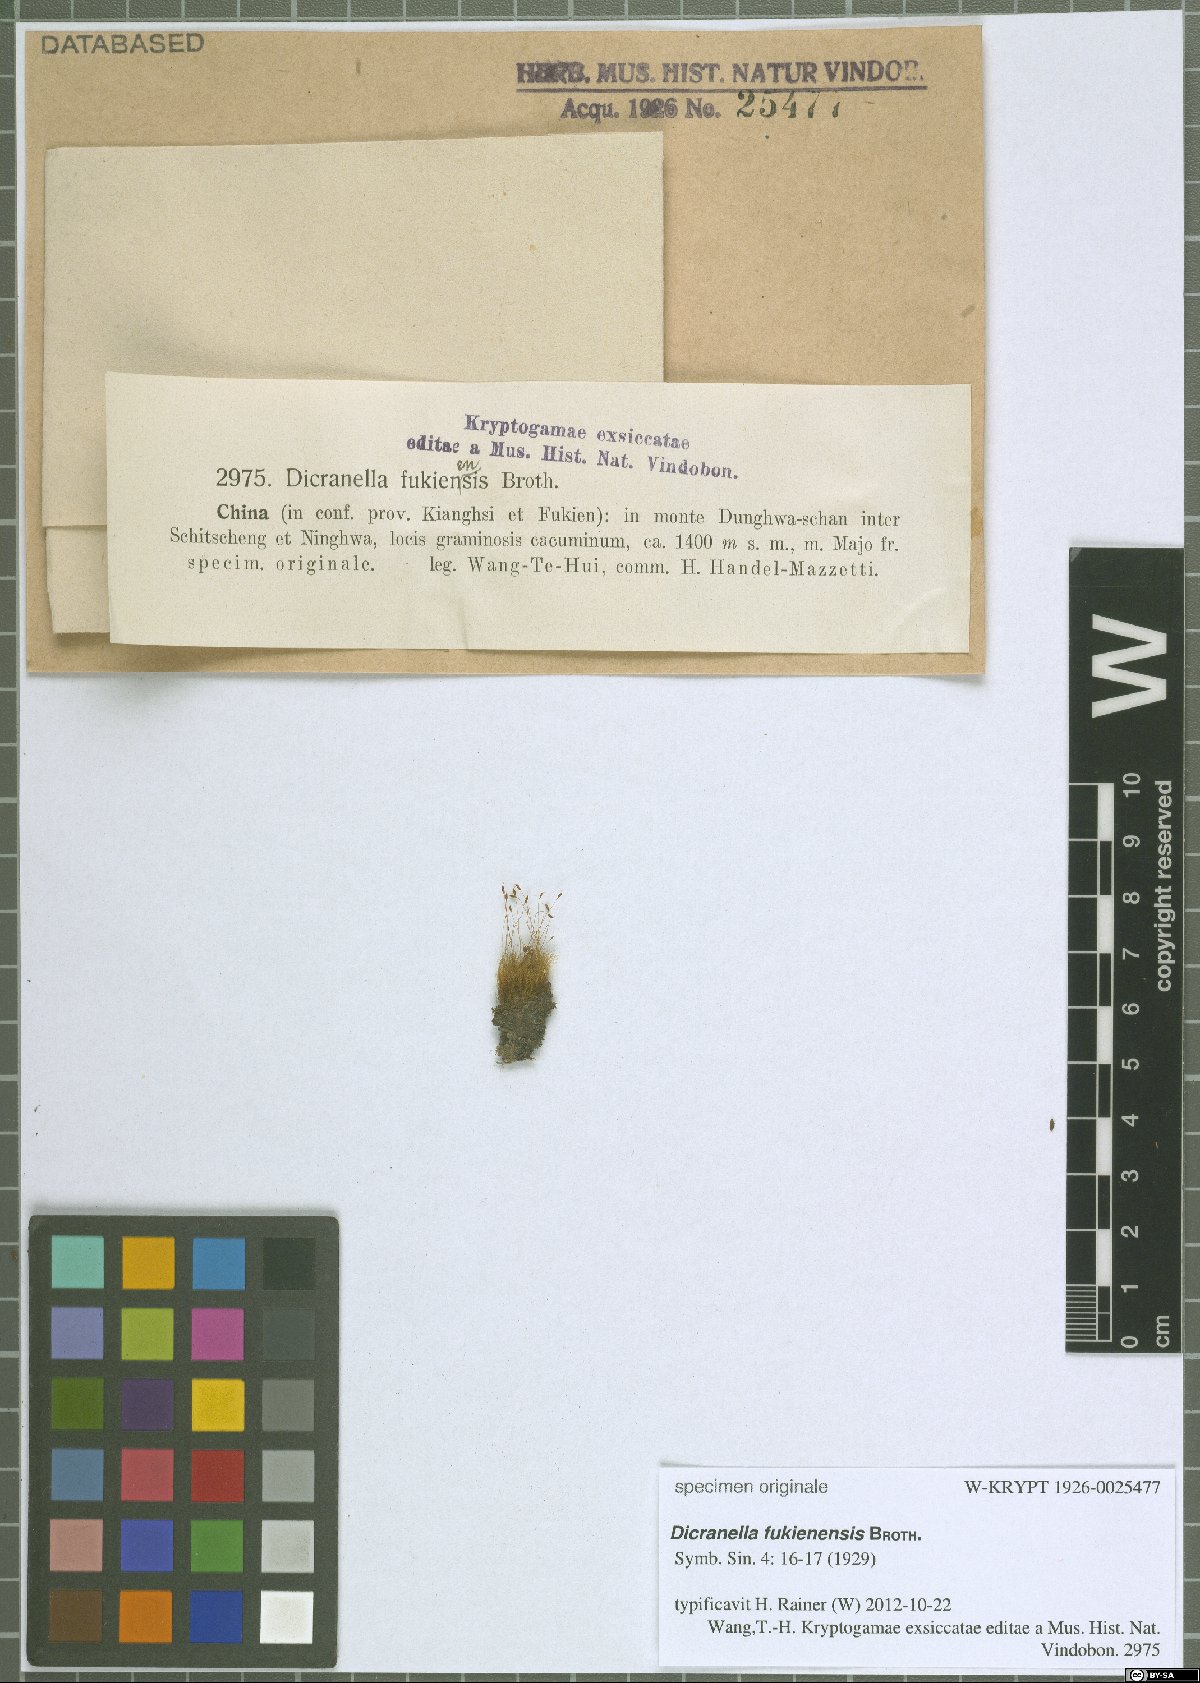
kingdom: Plantae
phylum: Bryophyta
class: Bryopsida
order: Dicranales
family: Dicranellaceae
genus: Dicranella
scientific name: Dicranella fukienensis
